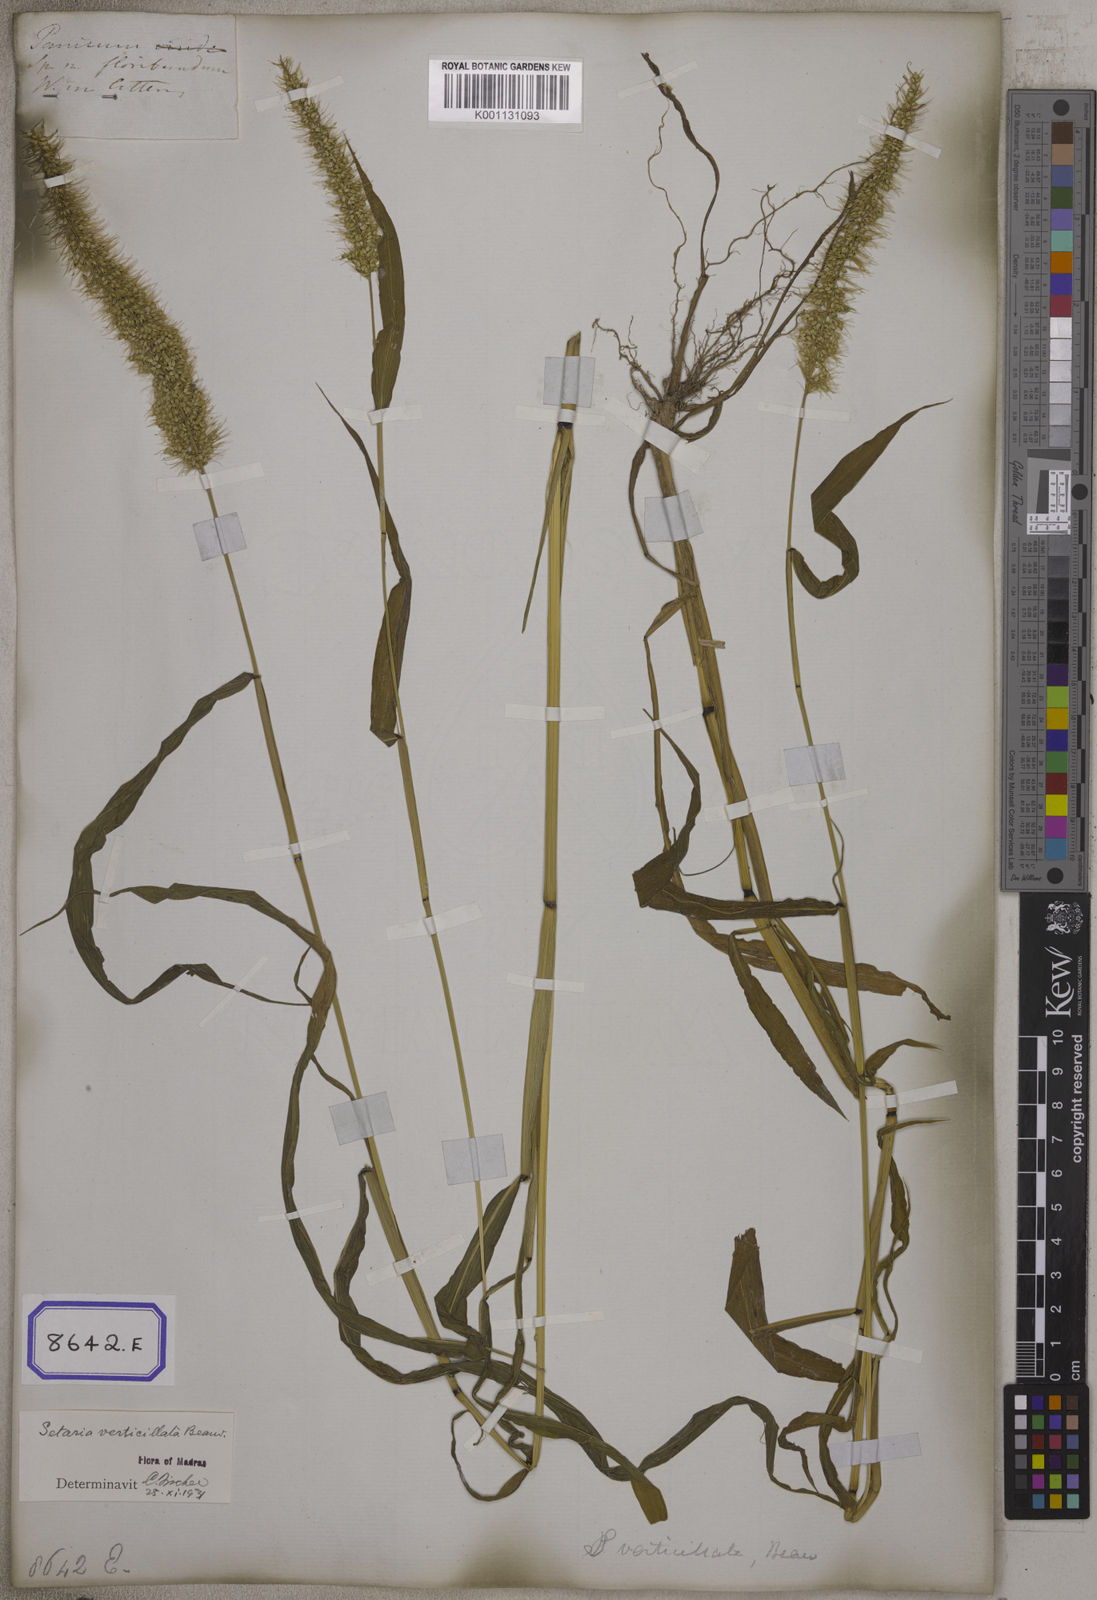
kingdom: Plantae
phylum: Tracheophyta
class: Liliopsida
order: Poales
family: Poaceae
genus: Setaria
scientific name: Setaria verticillata
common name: Hooked bristlegrass
